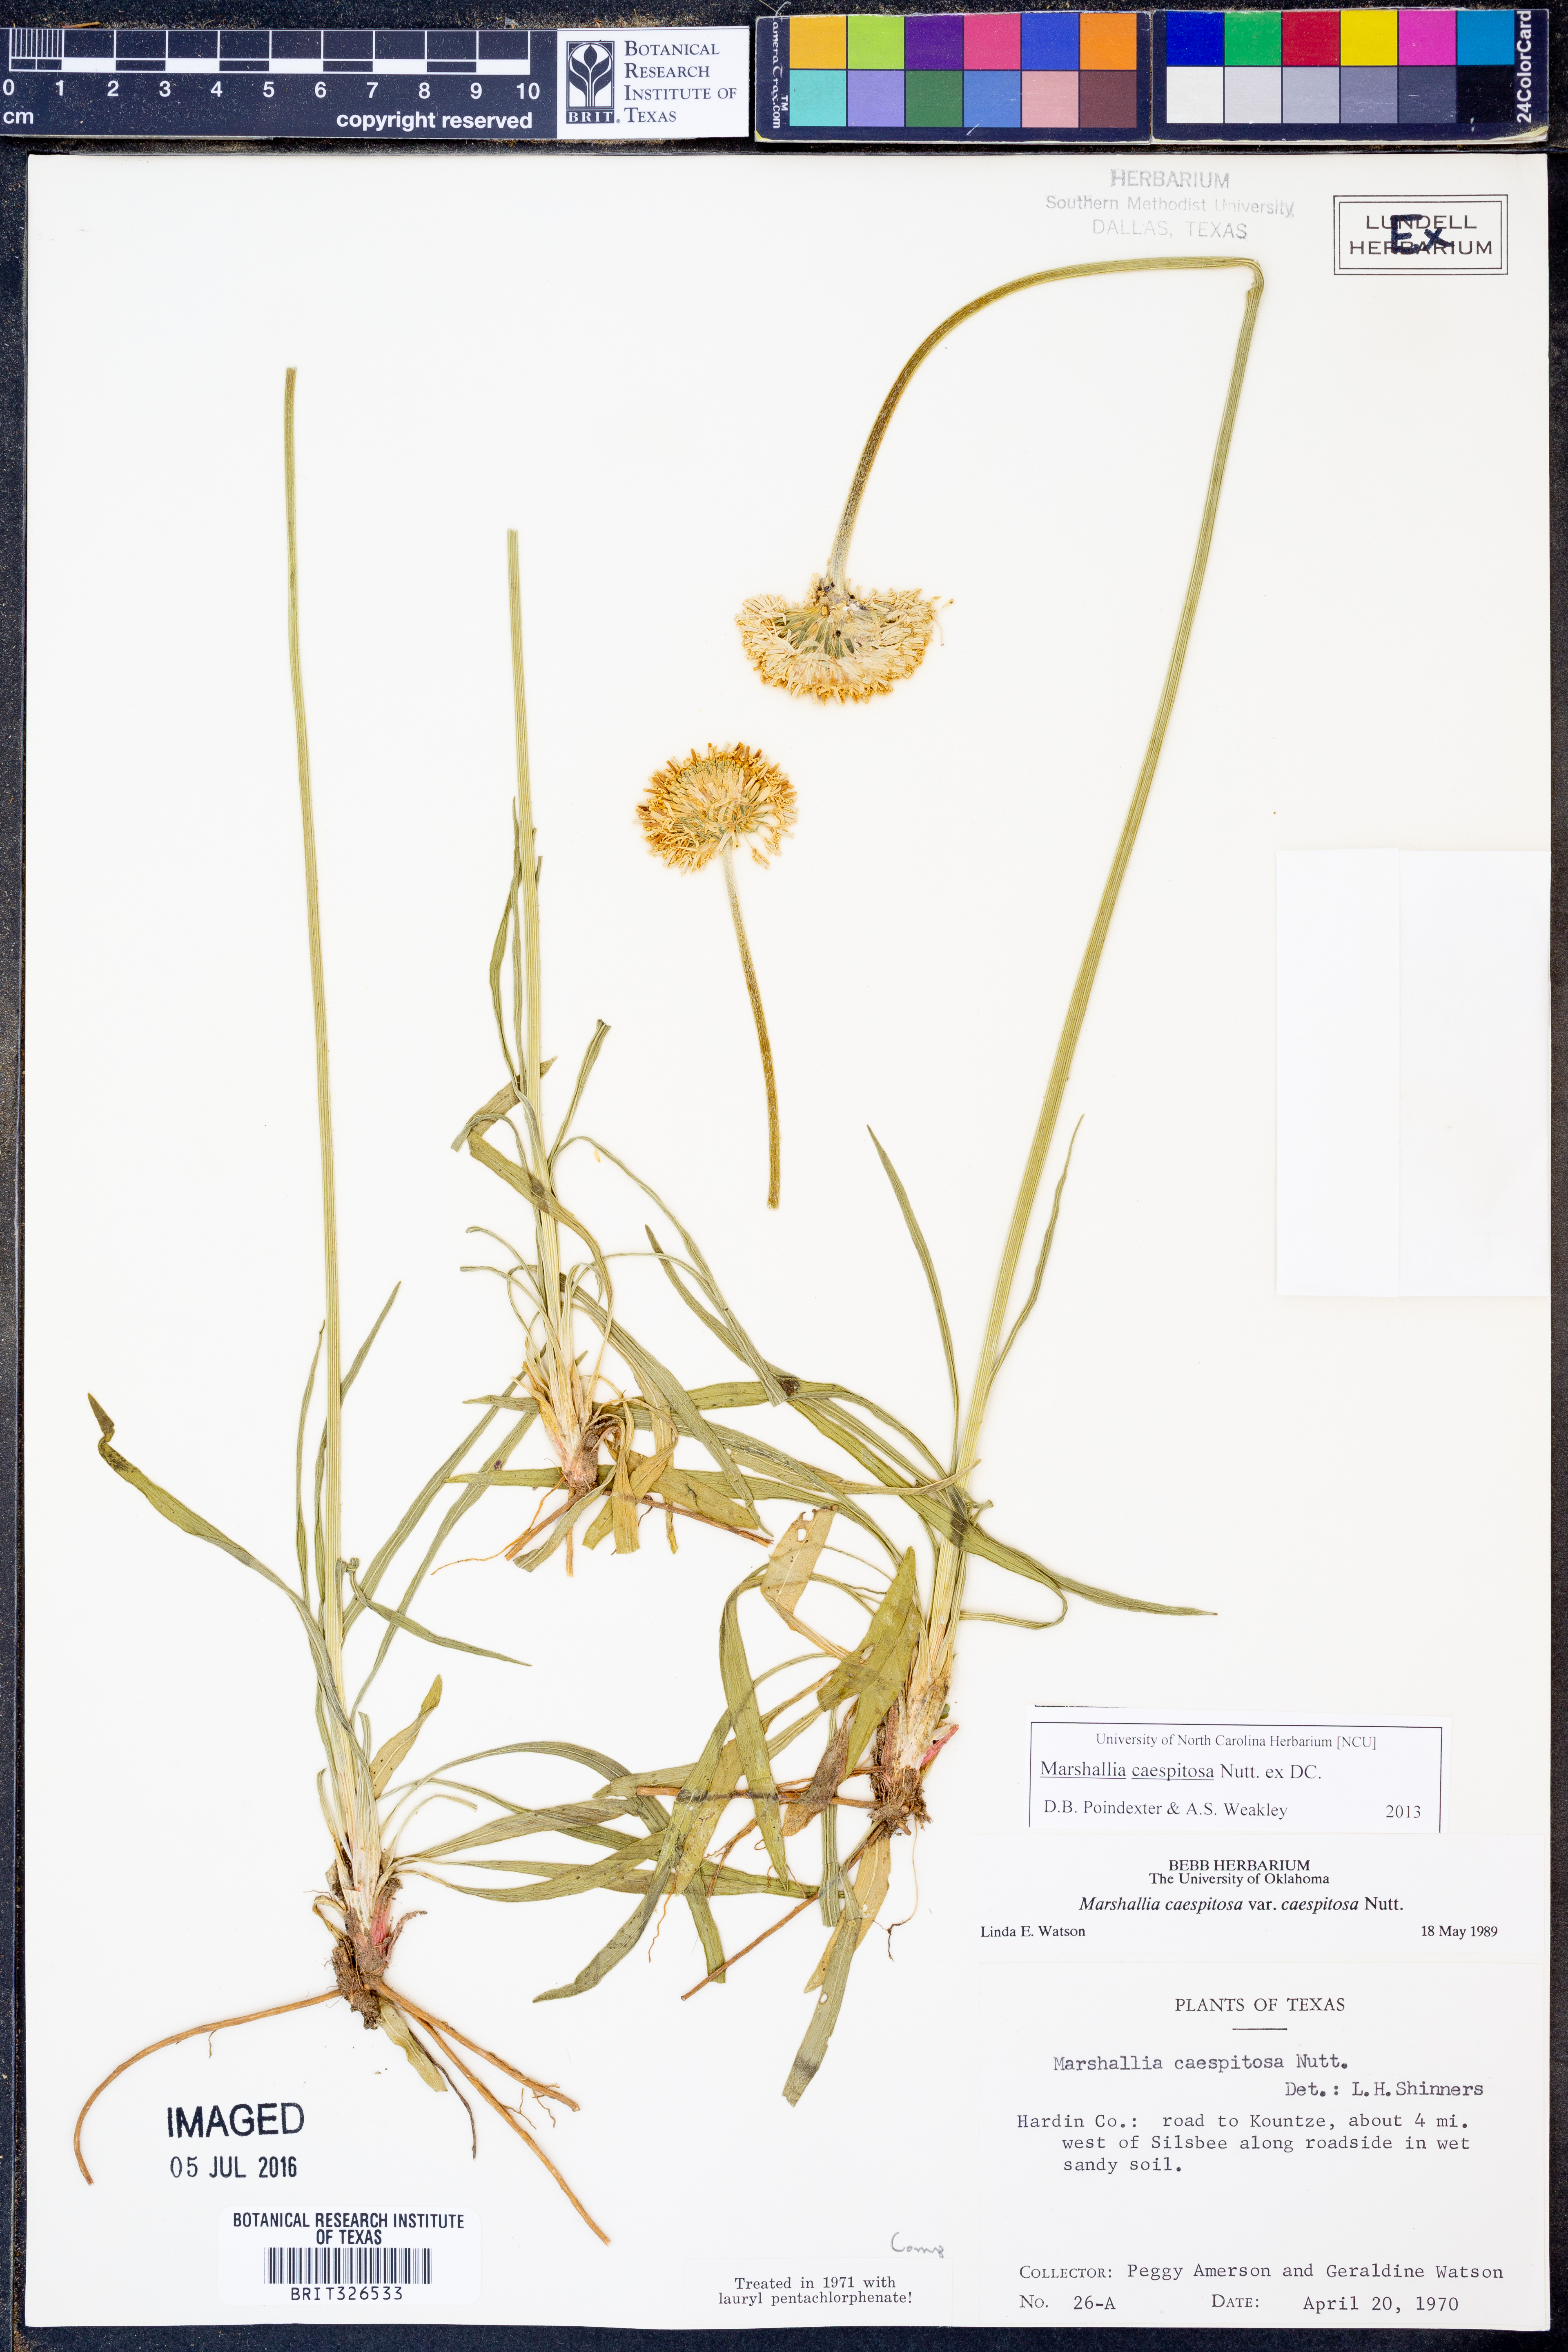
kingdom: Plantae
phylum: Tracheophyta
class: Magnoliopsida
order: Asterales
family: Asteraceae
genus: Marshallia
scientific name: Marshallia caespitosa
